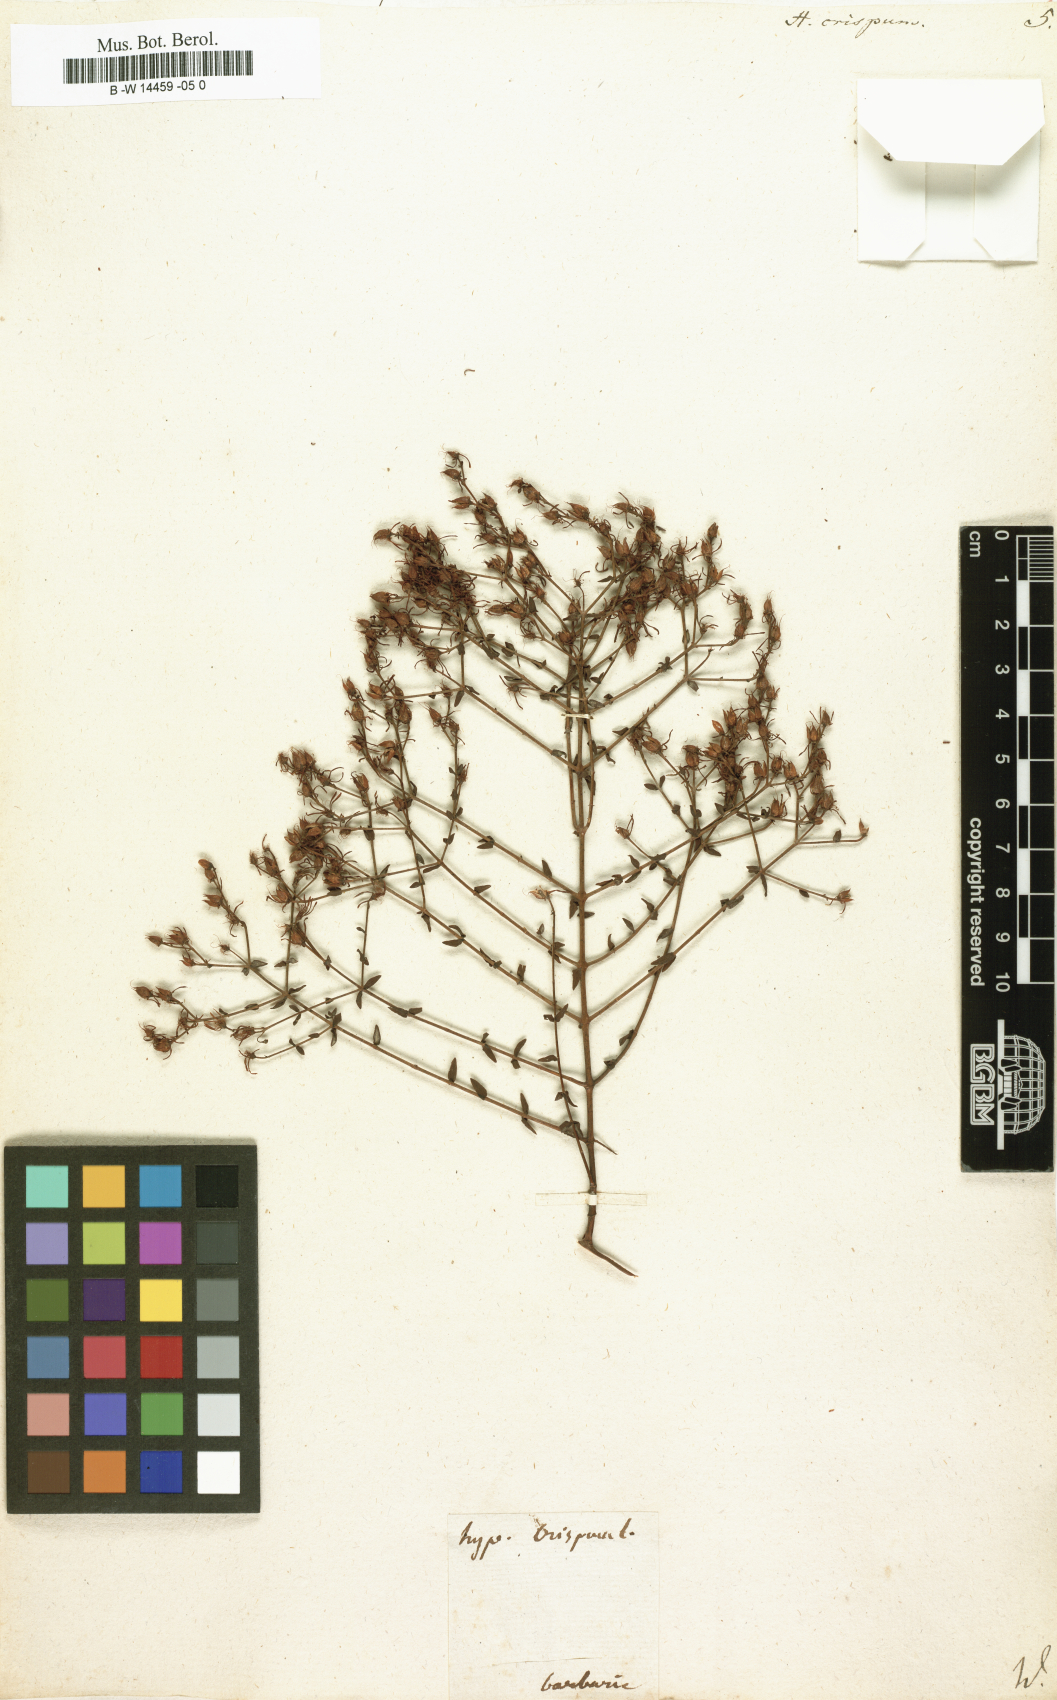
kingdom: Plantae
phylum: Tracheophyta
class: Magnoliopsida
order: Malpighiales
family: Hypericaceae
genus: Hypericum
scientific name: Hypericum triquetrifolium
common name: Tangled hypericum
